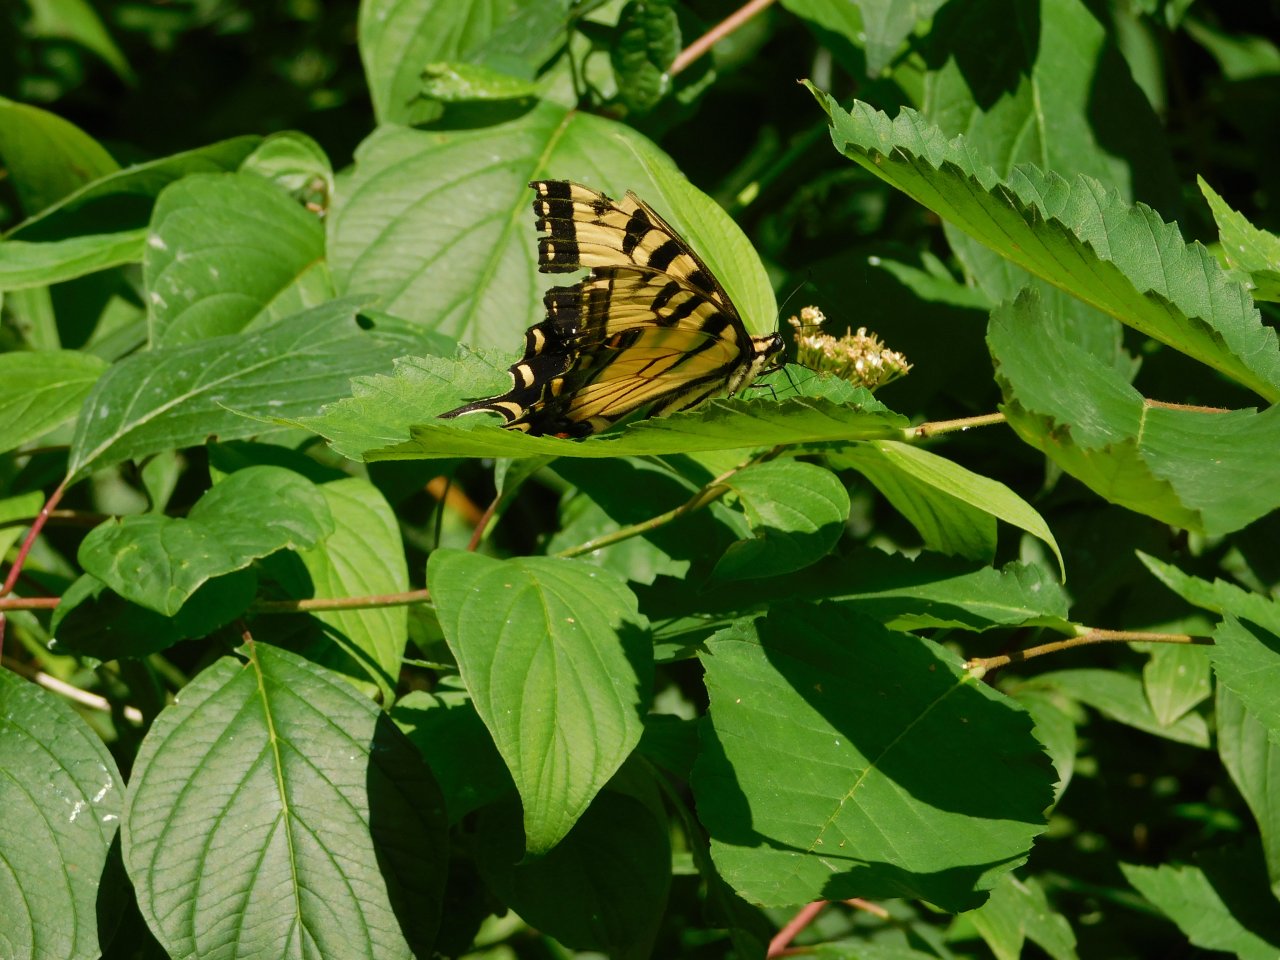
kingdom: Animalia
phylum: Arthropoda
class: Insecta
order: Lepidoptera
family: Papilionidae
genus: Pterourus
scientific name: Pterourus glaucus
